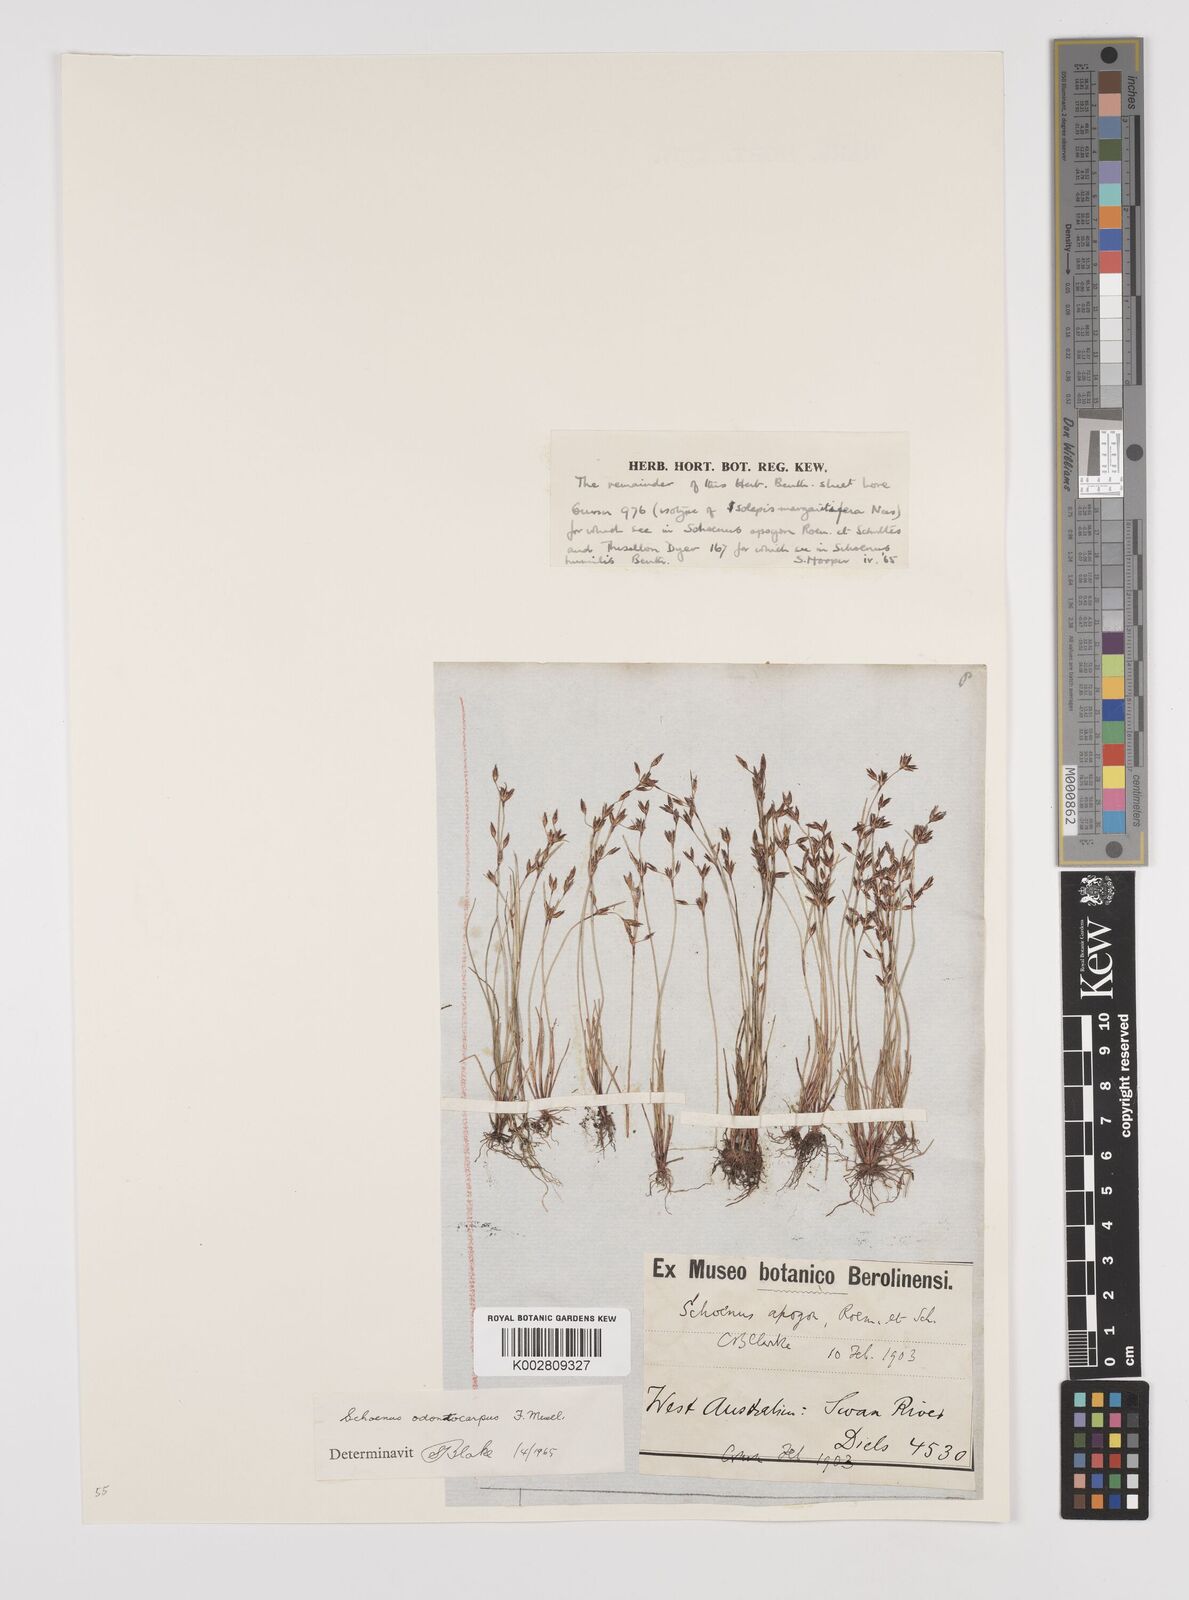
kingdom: Plantae
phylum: Tracheophyta
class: Liliopsida
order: Poales
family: Cyperaceae
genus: Schoenus
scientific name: Schoenus odontocarpus
